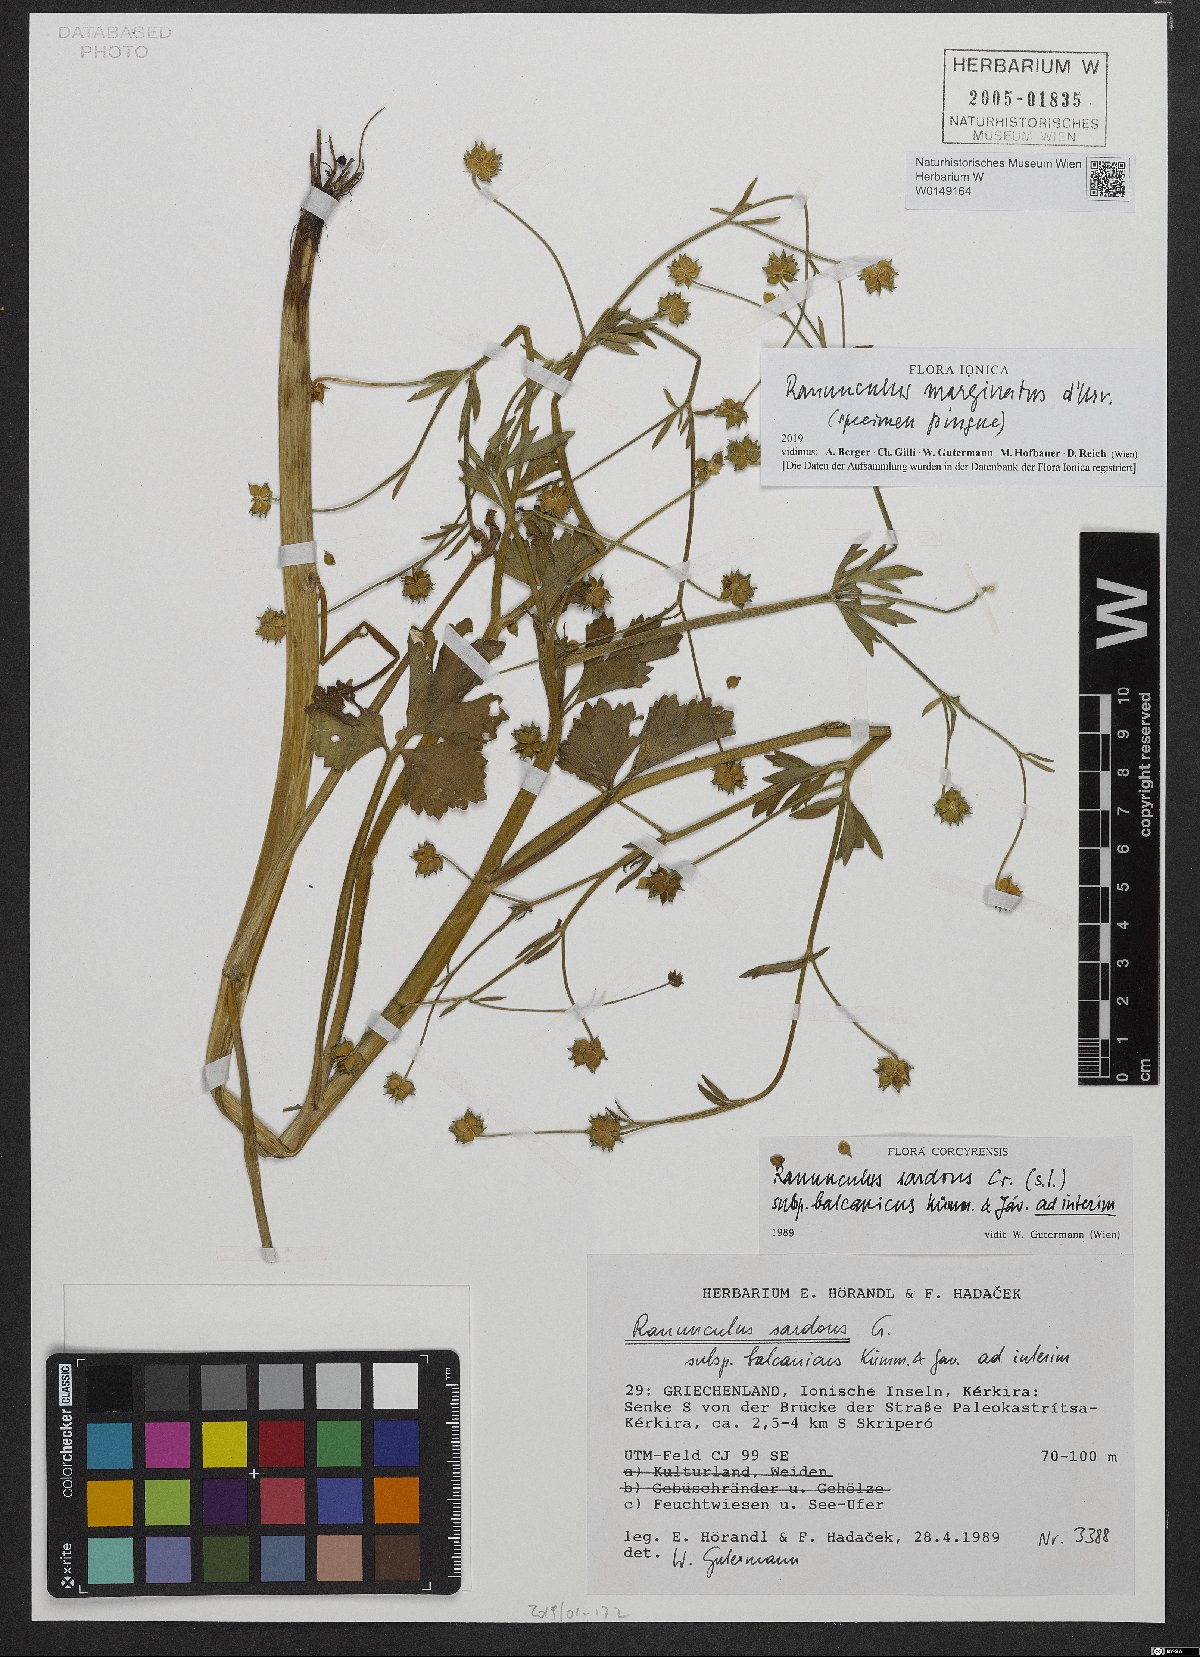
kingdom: Plantae
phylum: Tracheophyta
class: Magnoliopsida
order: Ranunculales
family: Ranunculaceae
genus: Ranunculus
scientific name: Ranunculus marginatus
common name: St. martin's buttercup
